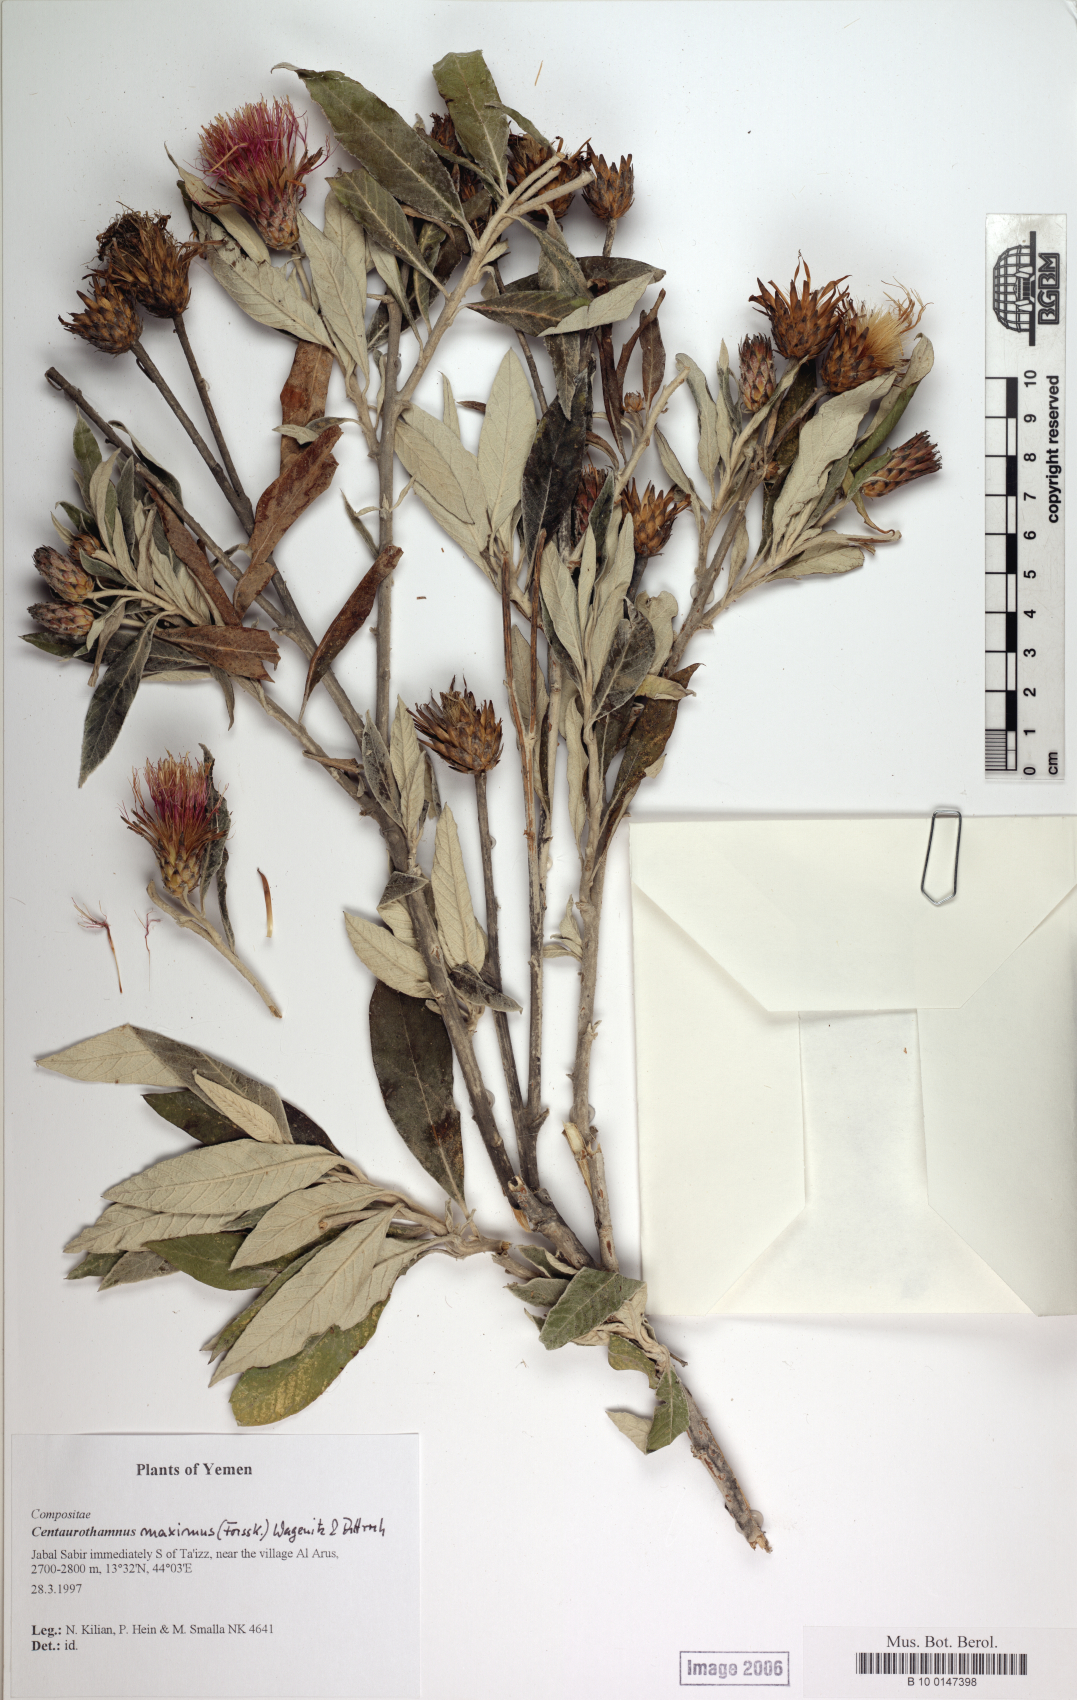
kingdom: Plantae
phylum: Tracheophyta
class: Magnoliopsida
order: Asterales
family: Asteraceae
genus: Centaurothamnus
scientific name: Centaurothamnus maximus
